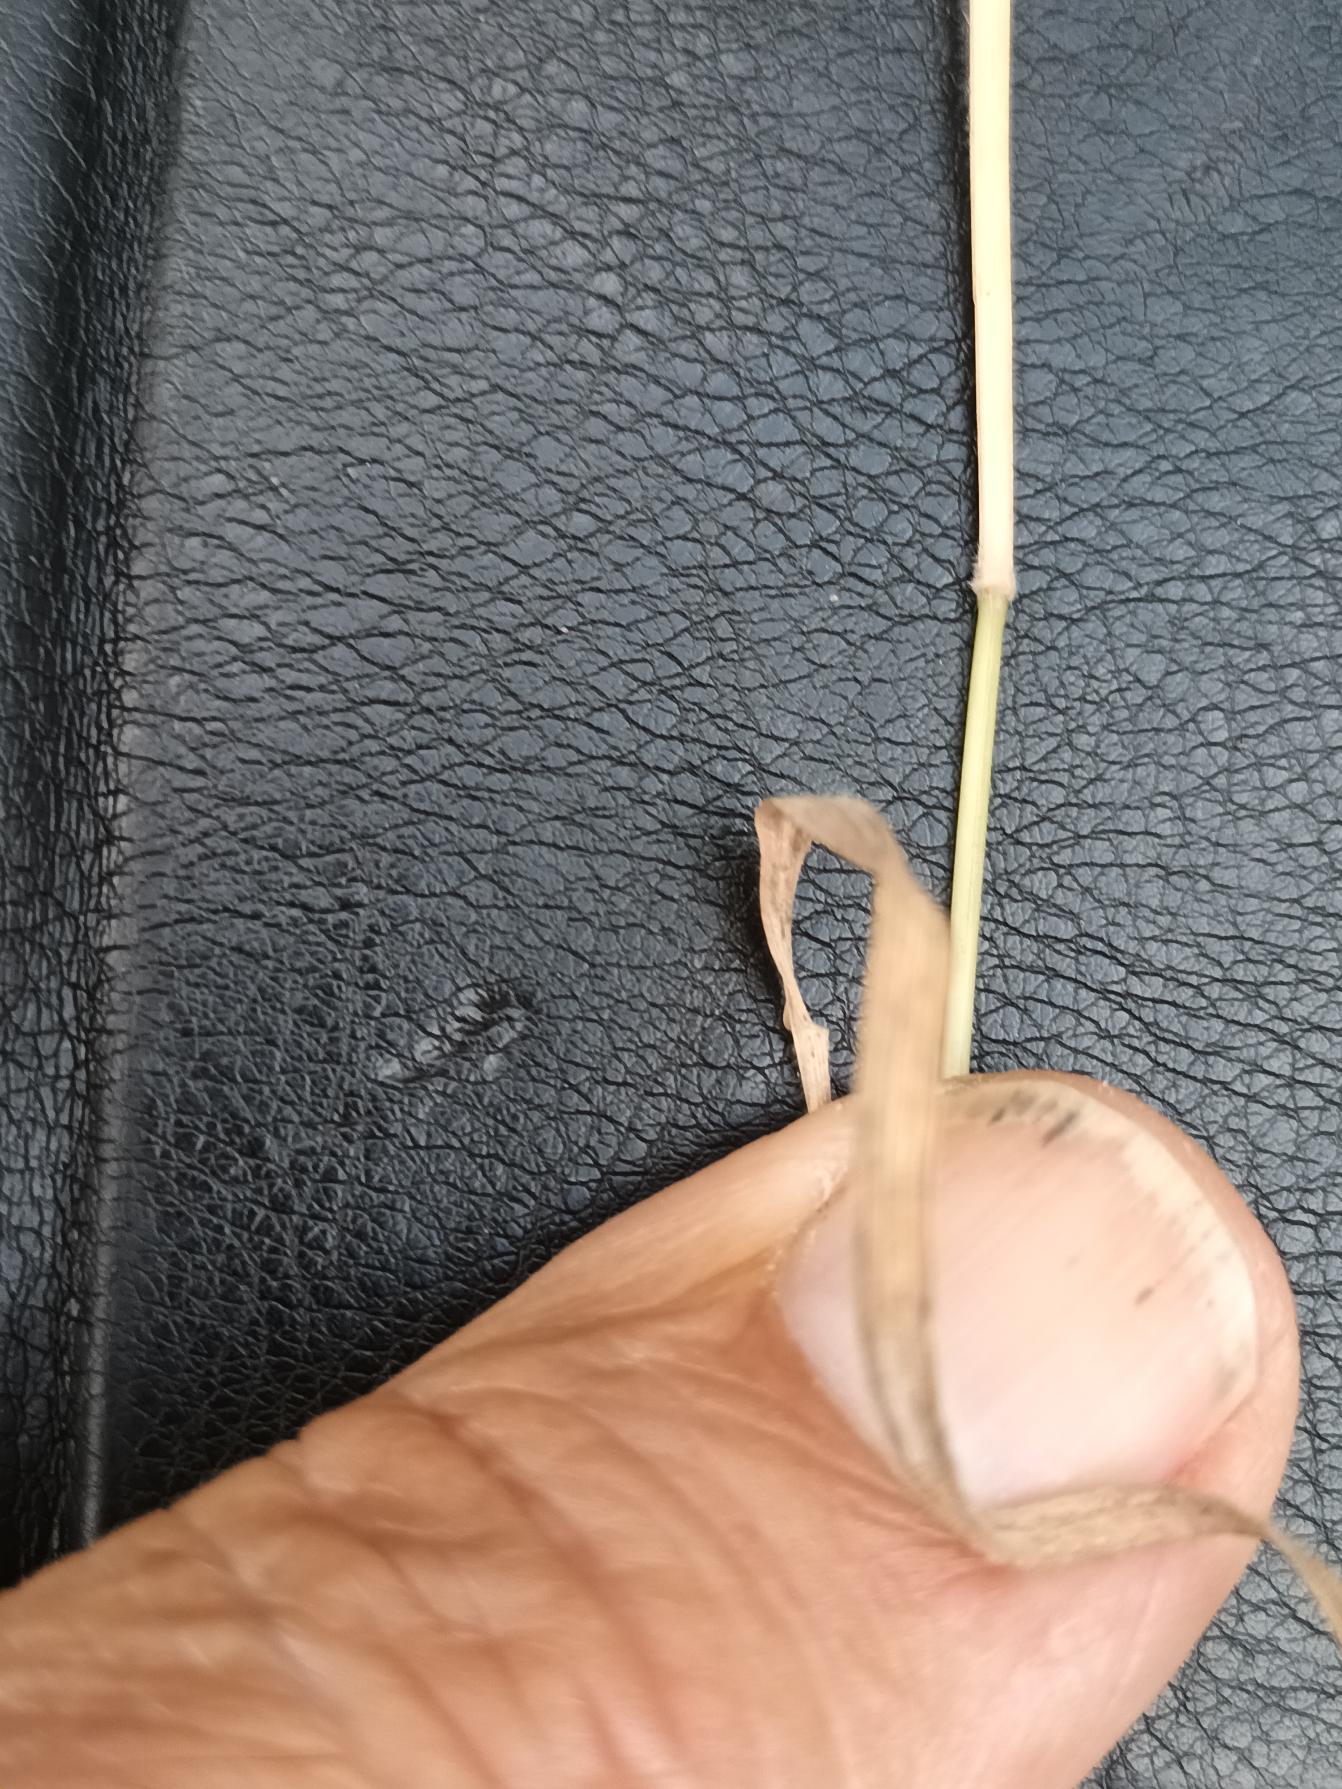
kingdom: Plantae
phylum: Tracheophyta
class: Liliopsida
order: Poales
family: Poaceae
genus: Holcus
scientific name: Holcus mollis
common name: Krybende hestegræs
